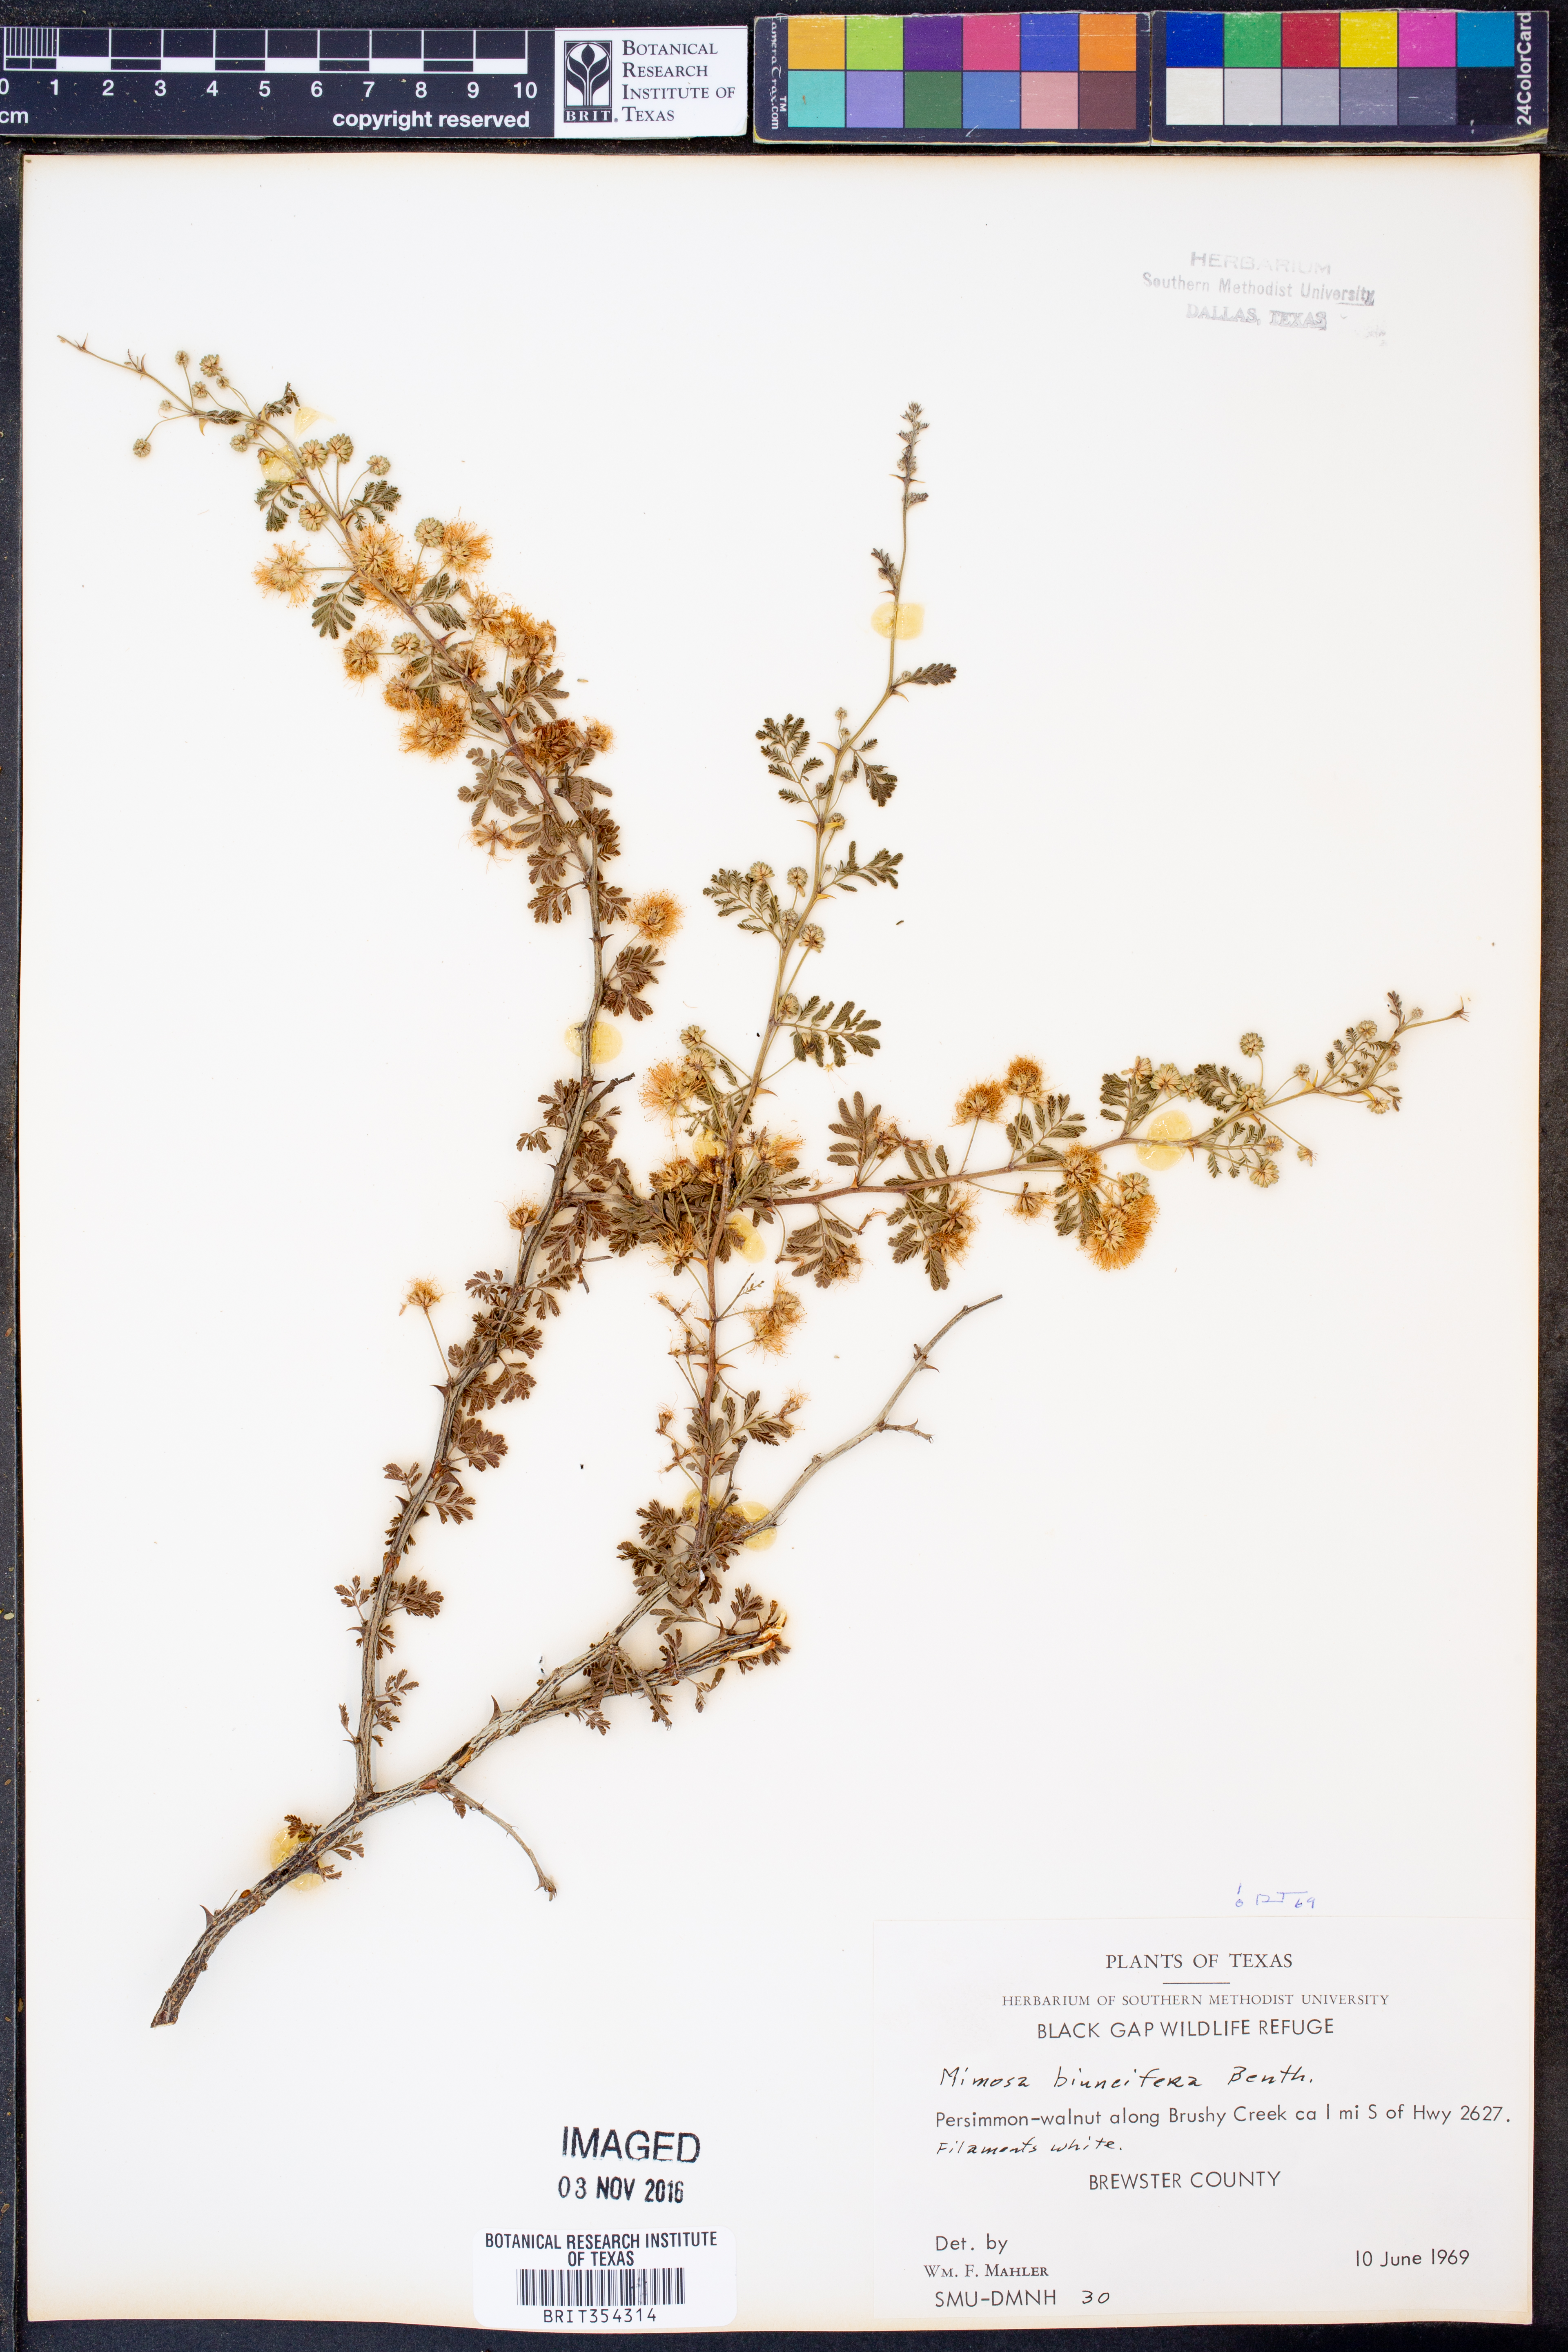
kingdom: Plantae
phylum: Tracheophyta
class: Magnoliopsida
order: Fabales
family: Fabaceae
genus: Mimosa
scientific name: Mimosa biuncifera
